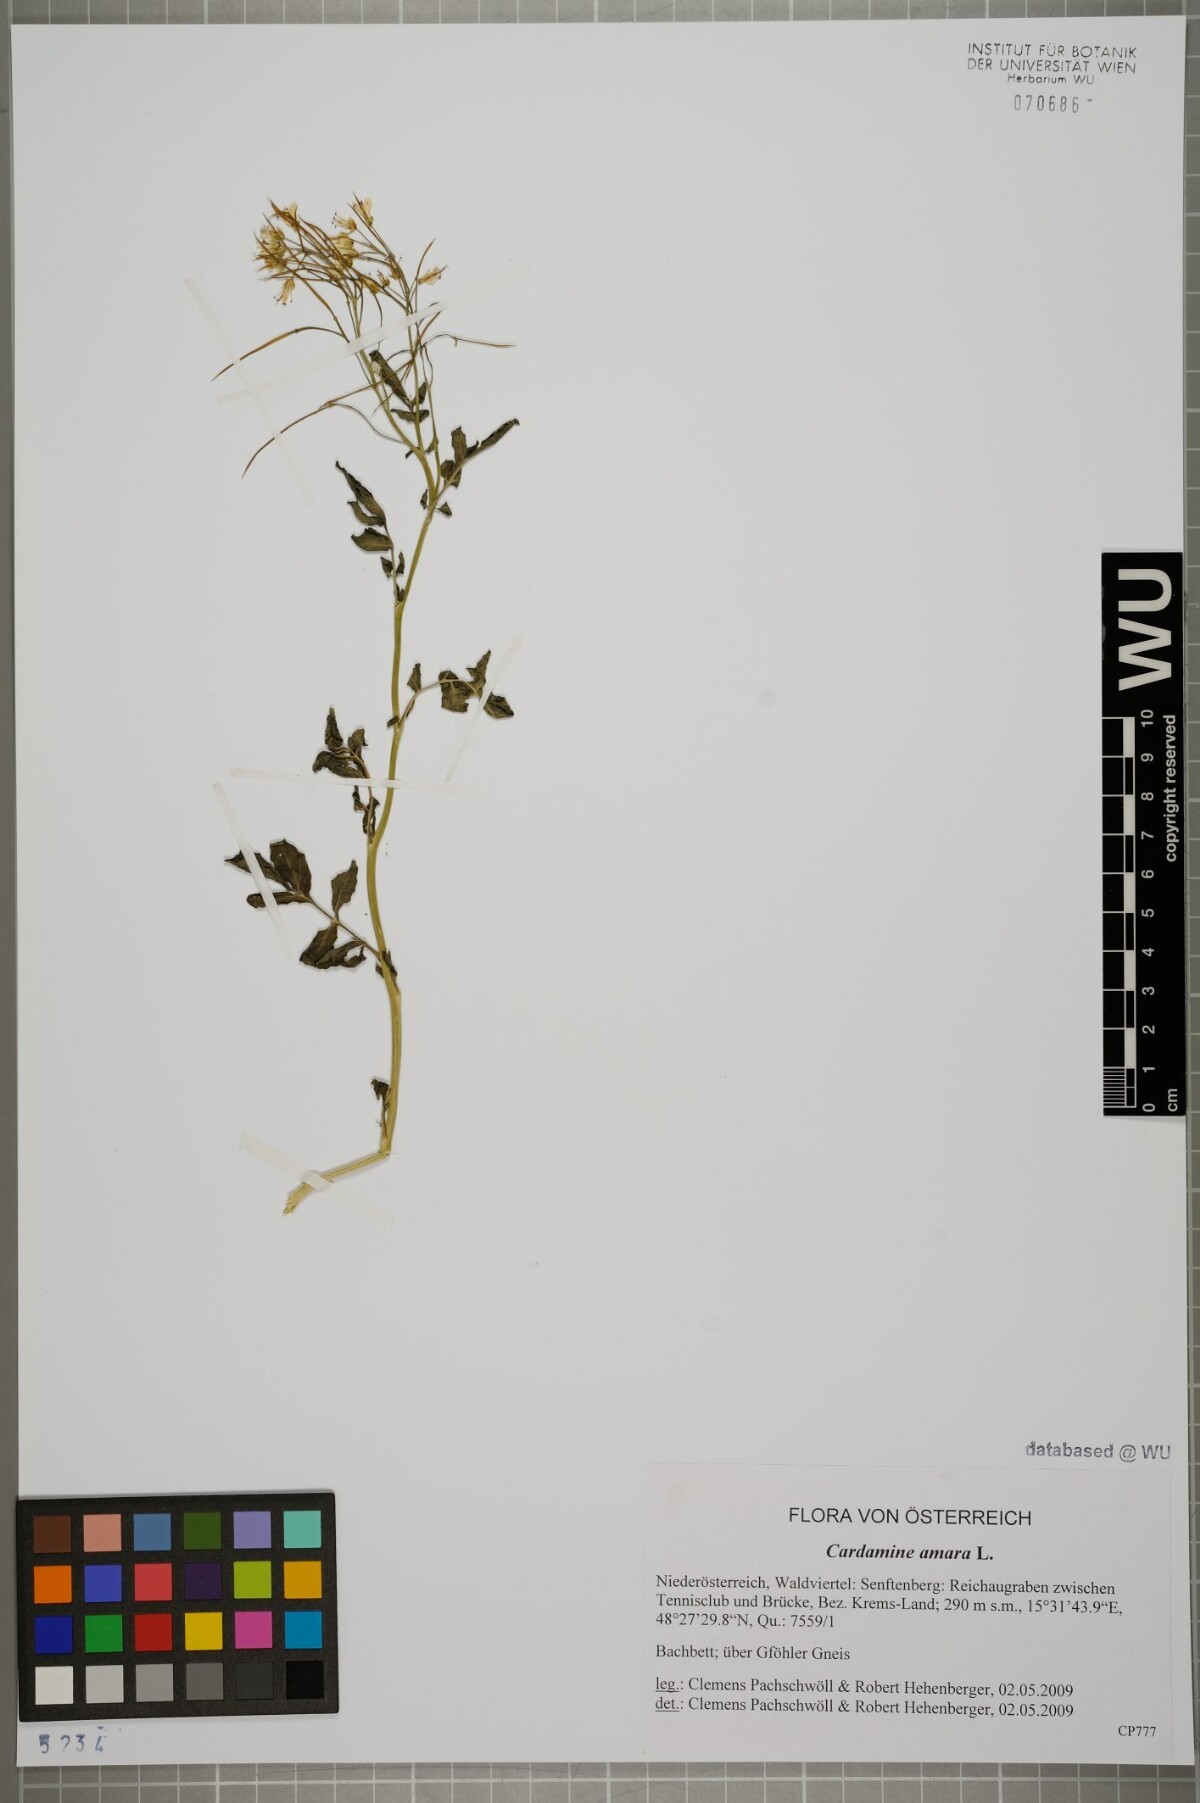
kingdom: Plantae
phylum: Tracheophyta
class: Magnoliopsida
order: Brassicales
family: Brassicaceae
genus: Cardamine
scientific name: Cardamine amara
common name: Large bitter-cress
